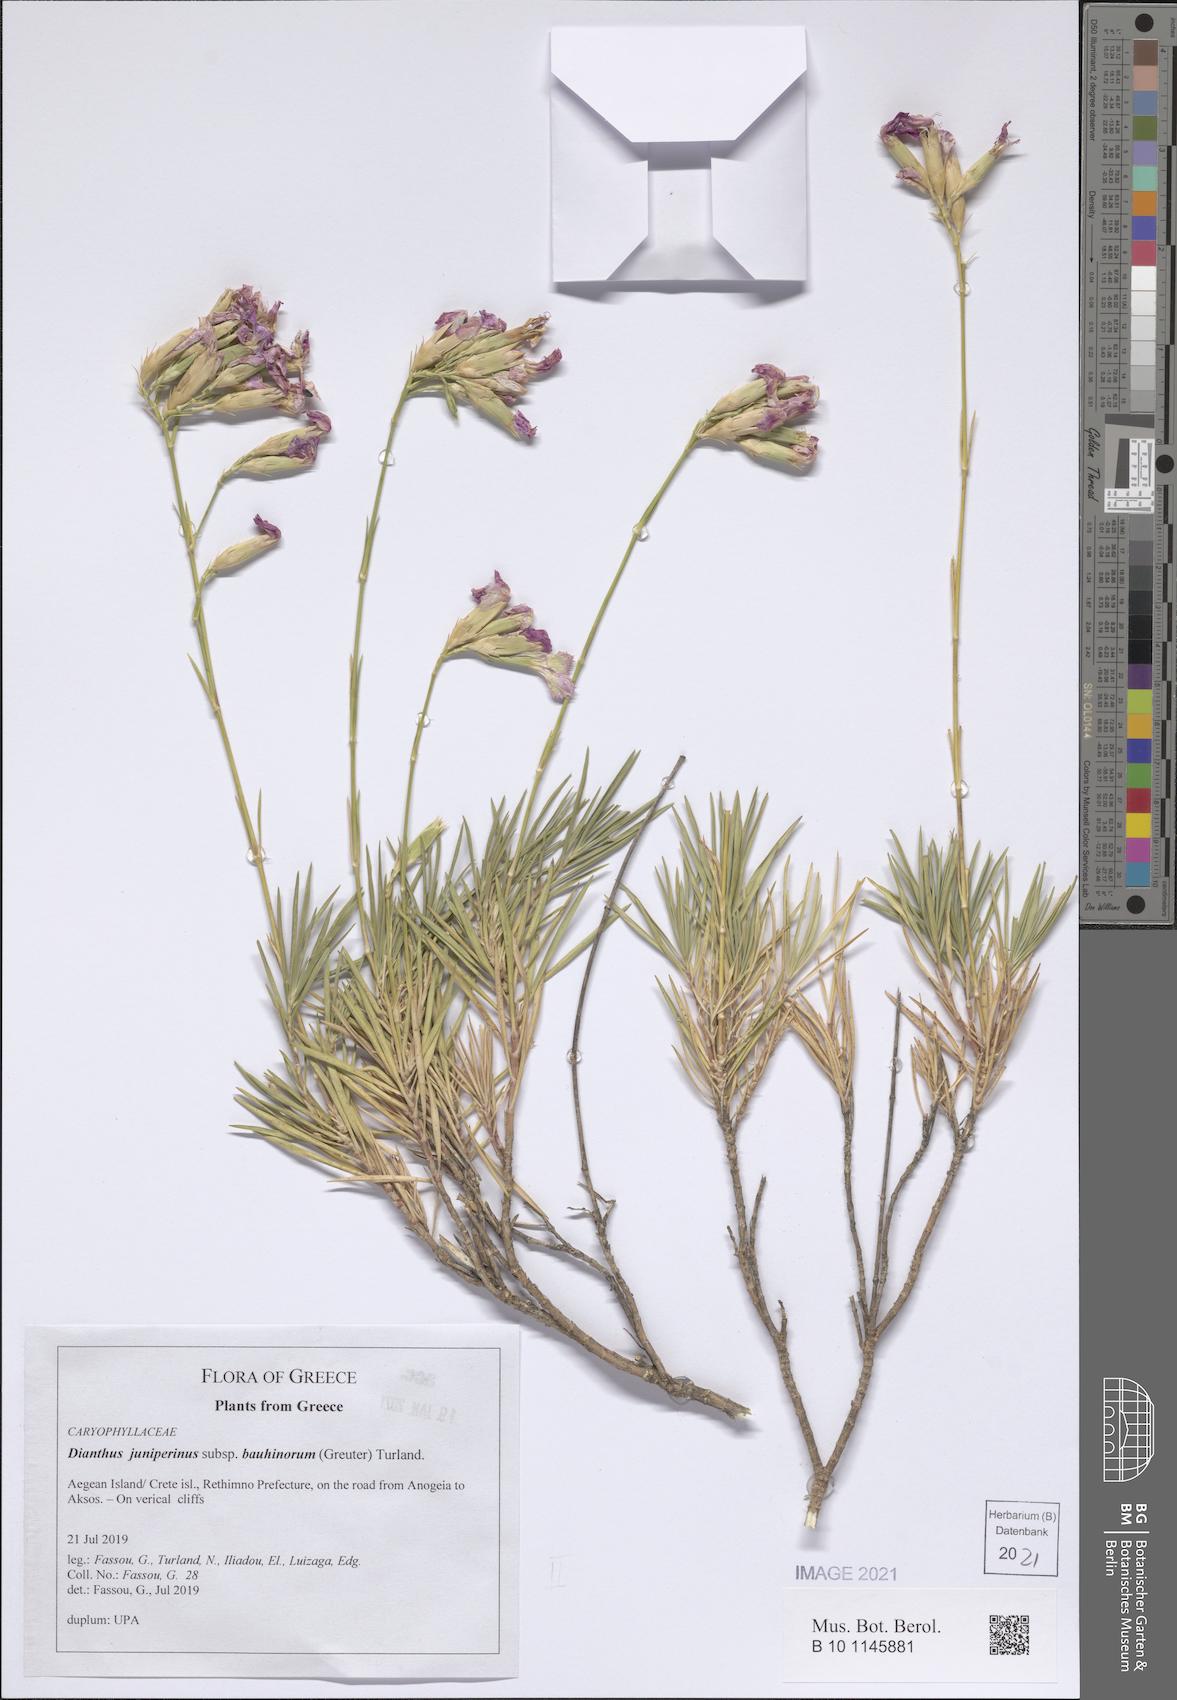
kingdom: Plantae
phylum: Tracheophyta
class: Magnoliopsida
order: Caryophyllales
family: Caryophyllaceae
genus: Dianthus
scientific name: Dianthus juniperinus
